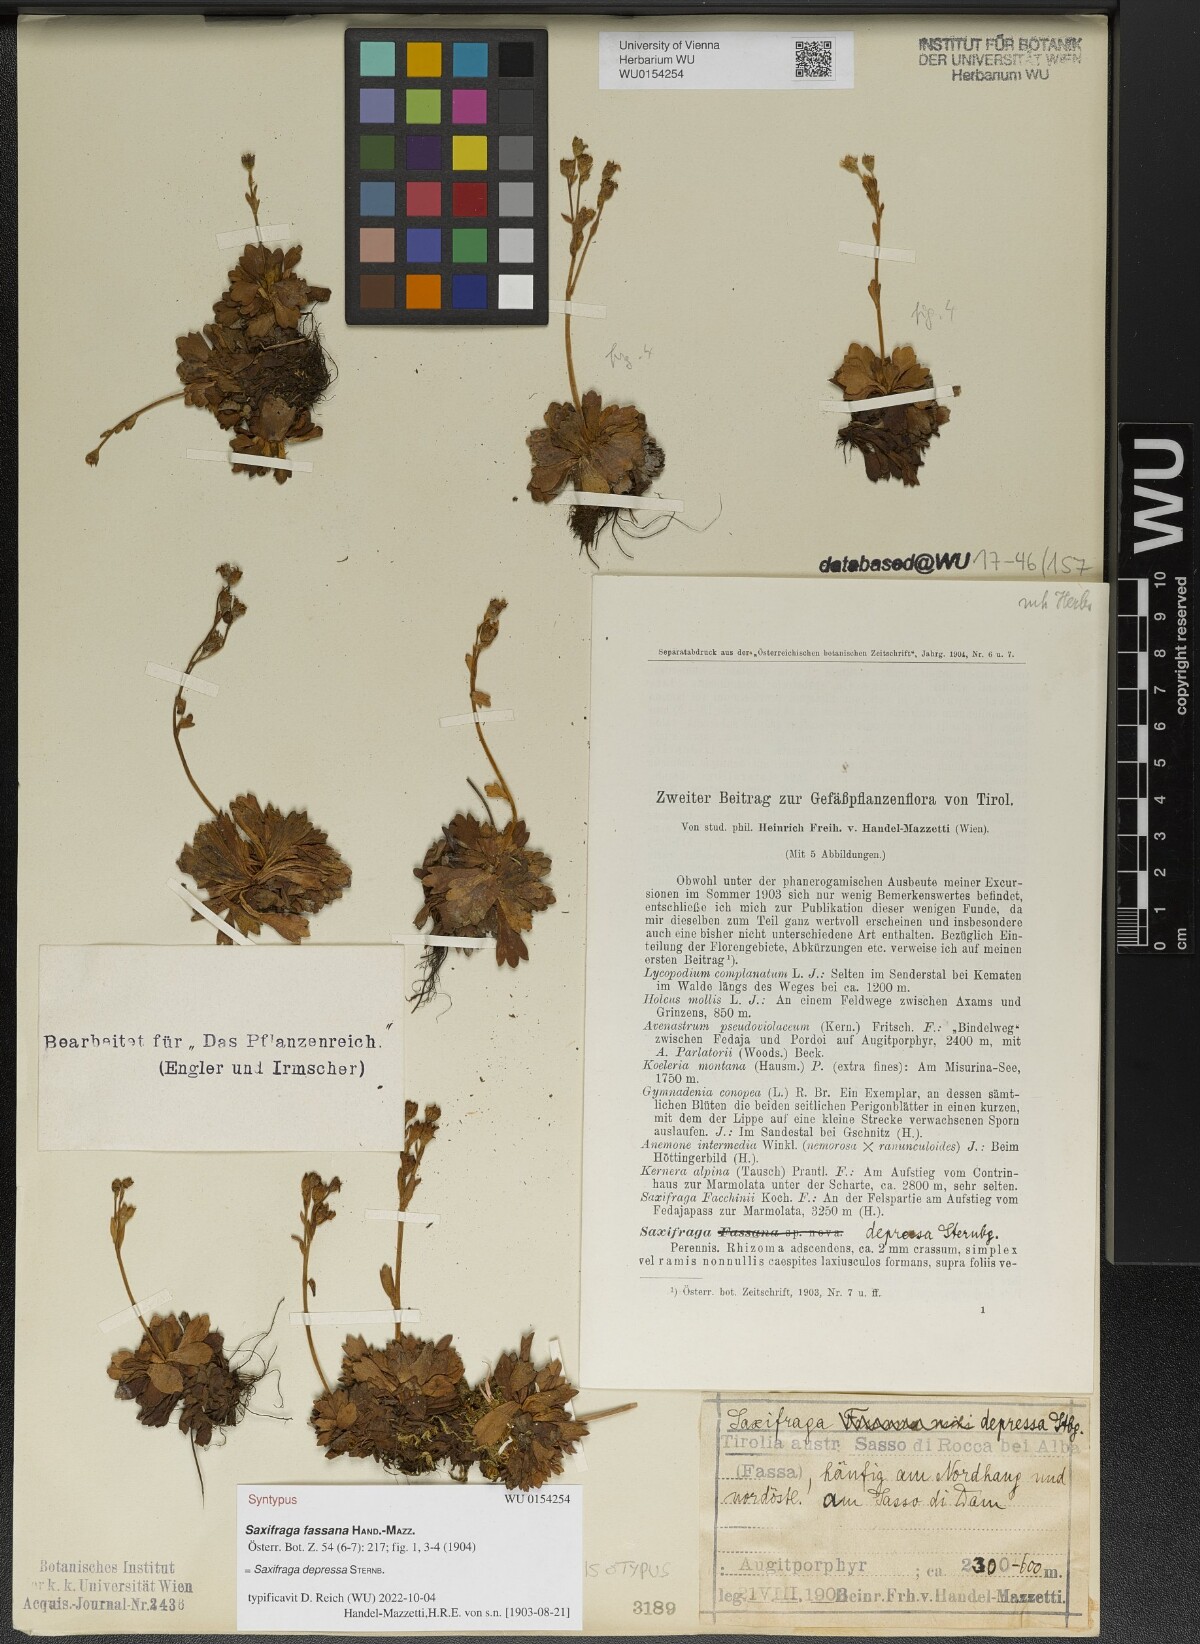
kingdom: Plantae
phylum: Tracheophyta
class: Magnoliopsida
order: Saxifragales
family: Saxifragaceae
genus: Saxifraga
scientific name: Saxifraga depressa
